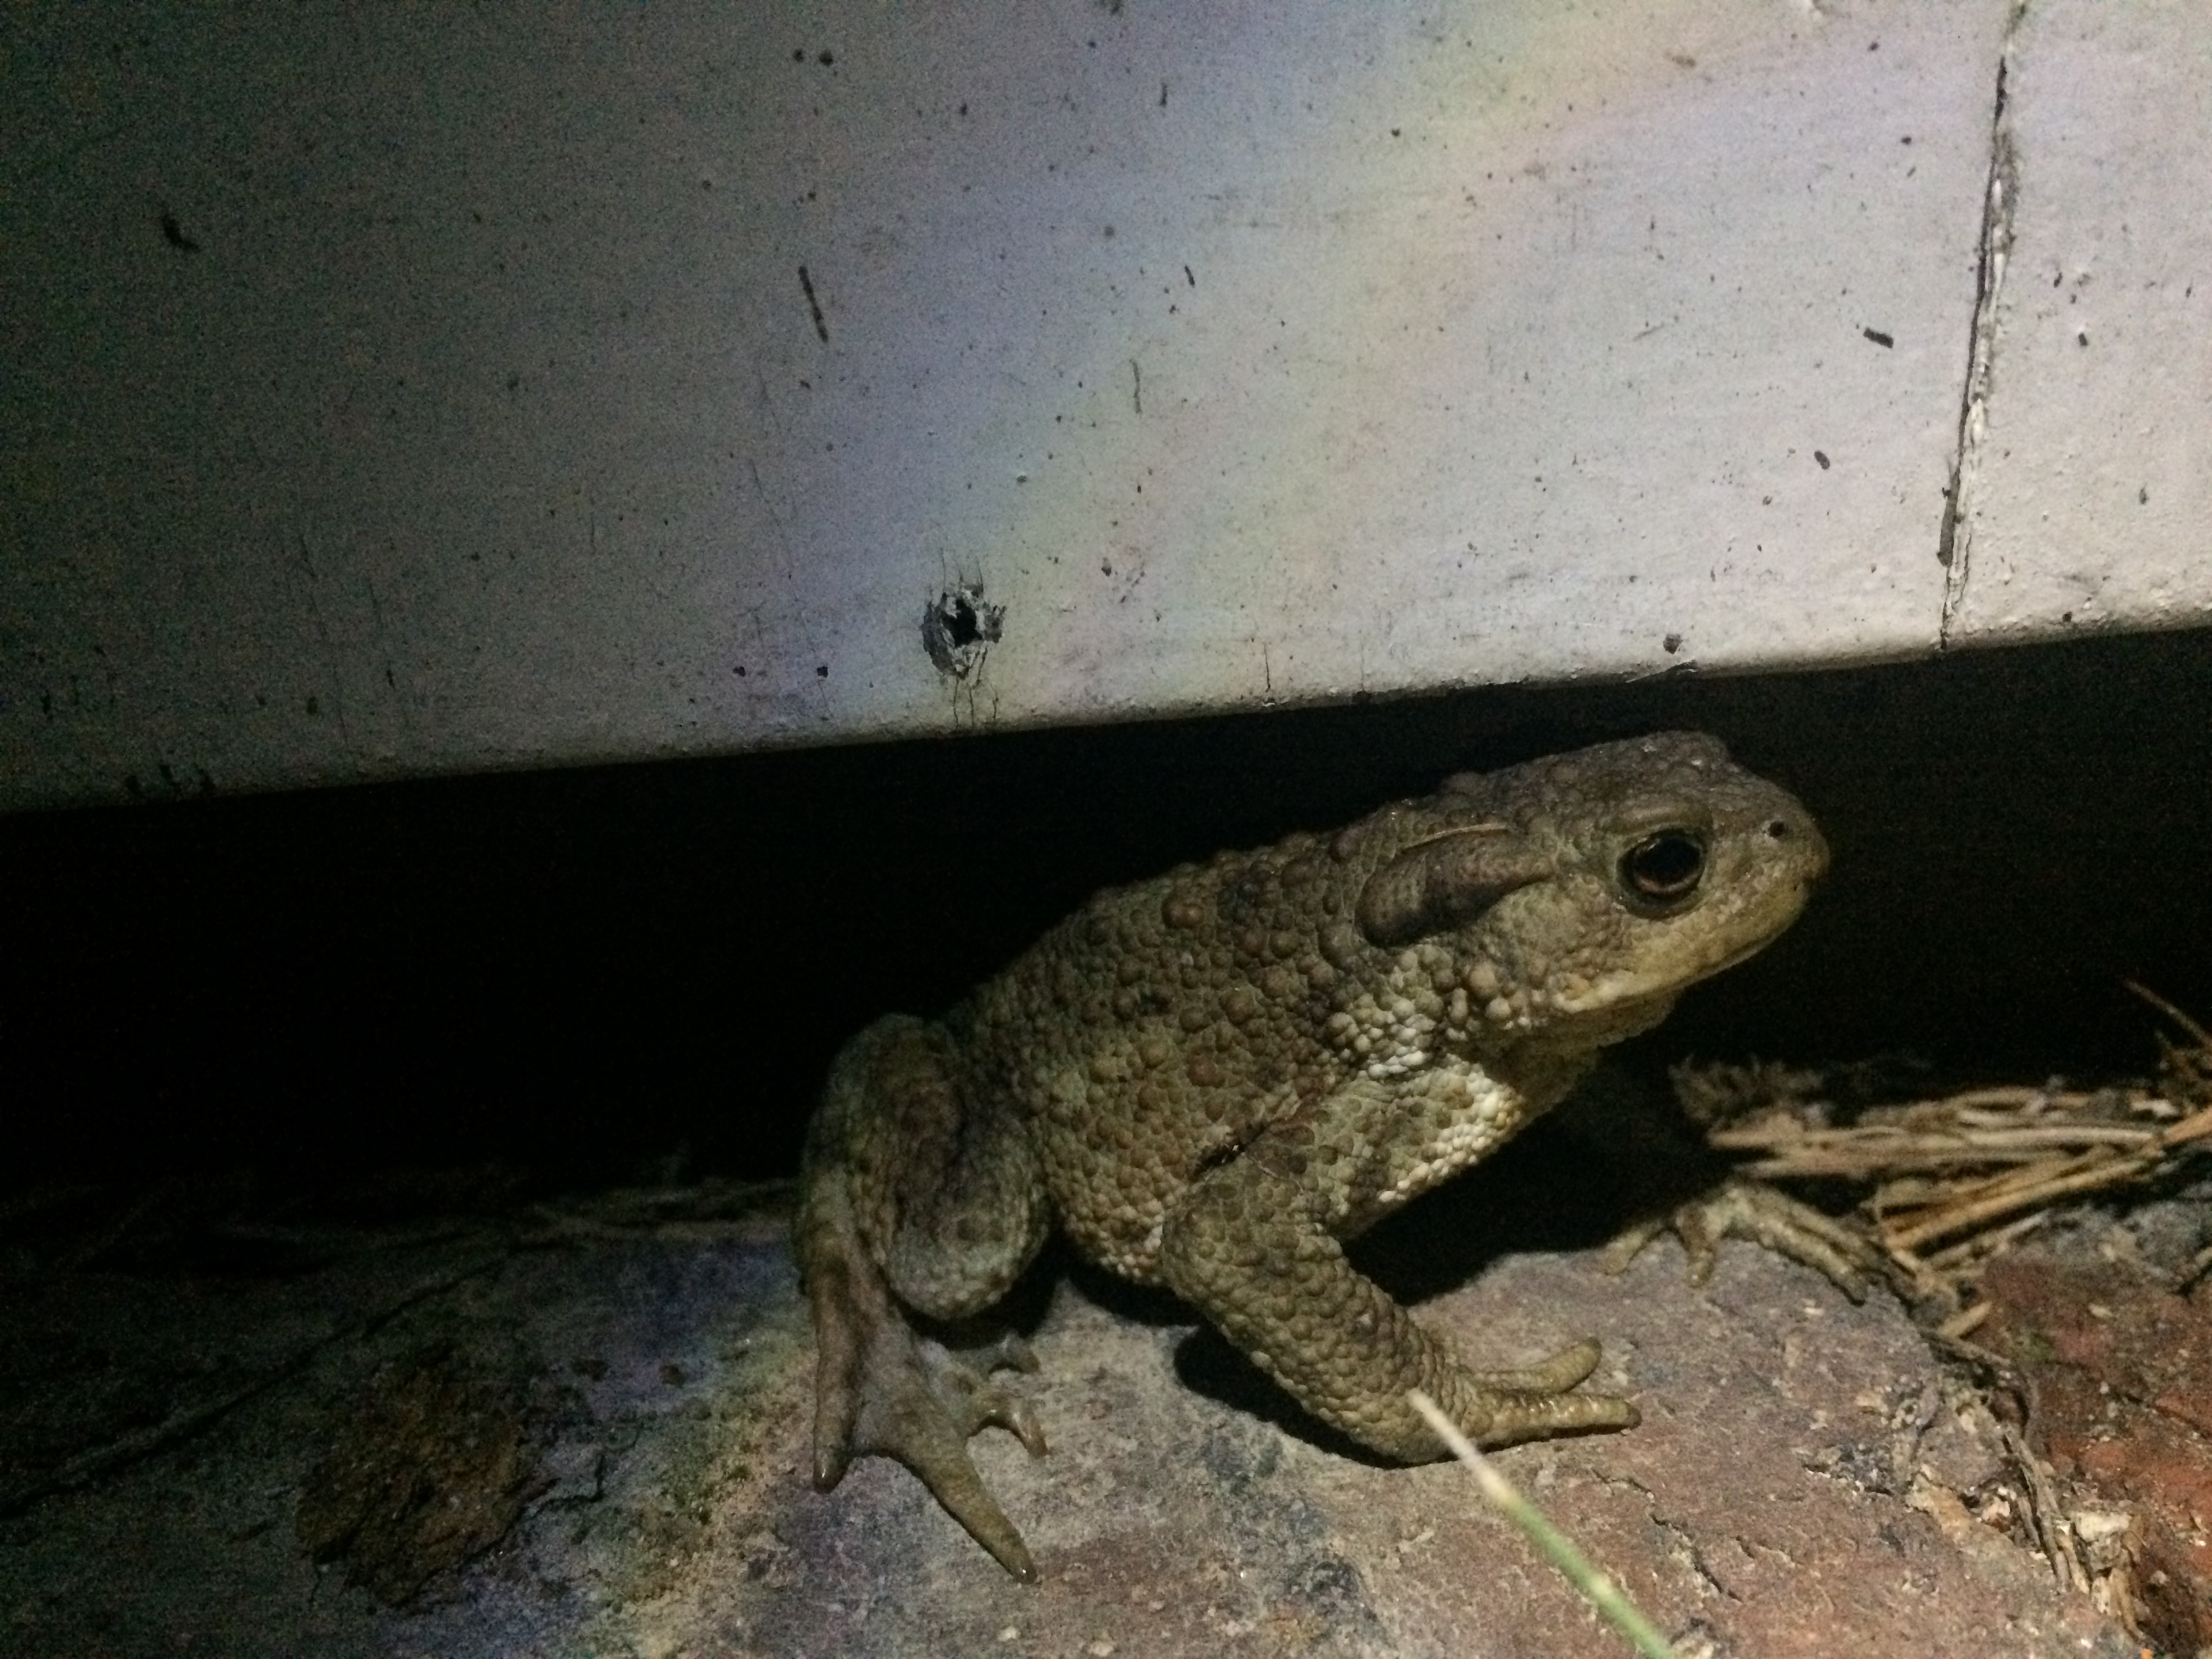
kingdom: Animalia
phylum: Chordata
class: Amphibia
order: Anura
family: Bufonidae
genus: Bufo
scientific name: Bufo bufo
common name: Common toad
